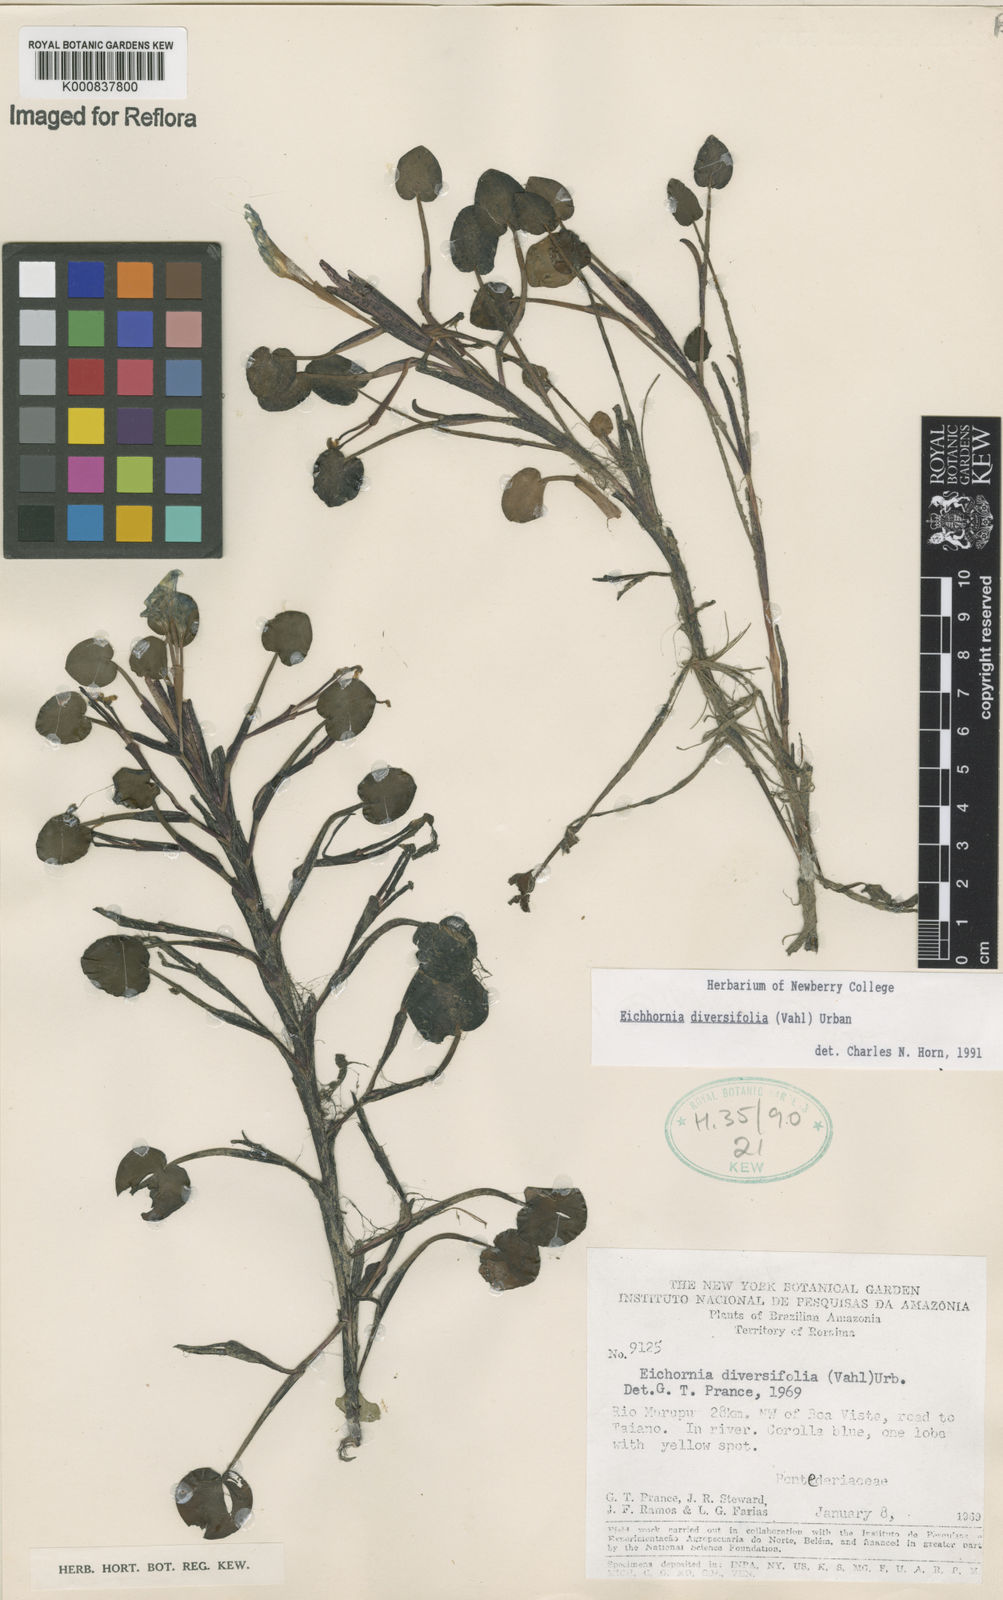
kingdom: Plantae
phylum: Tracheophyta
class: Liliopsida
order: Commelinales
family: Pontederiaceae
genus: Pontederia
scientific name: Pontederia diversifolia
